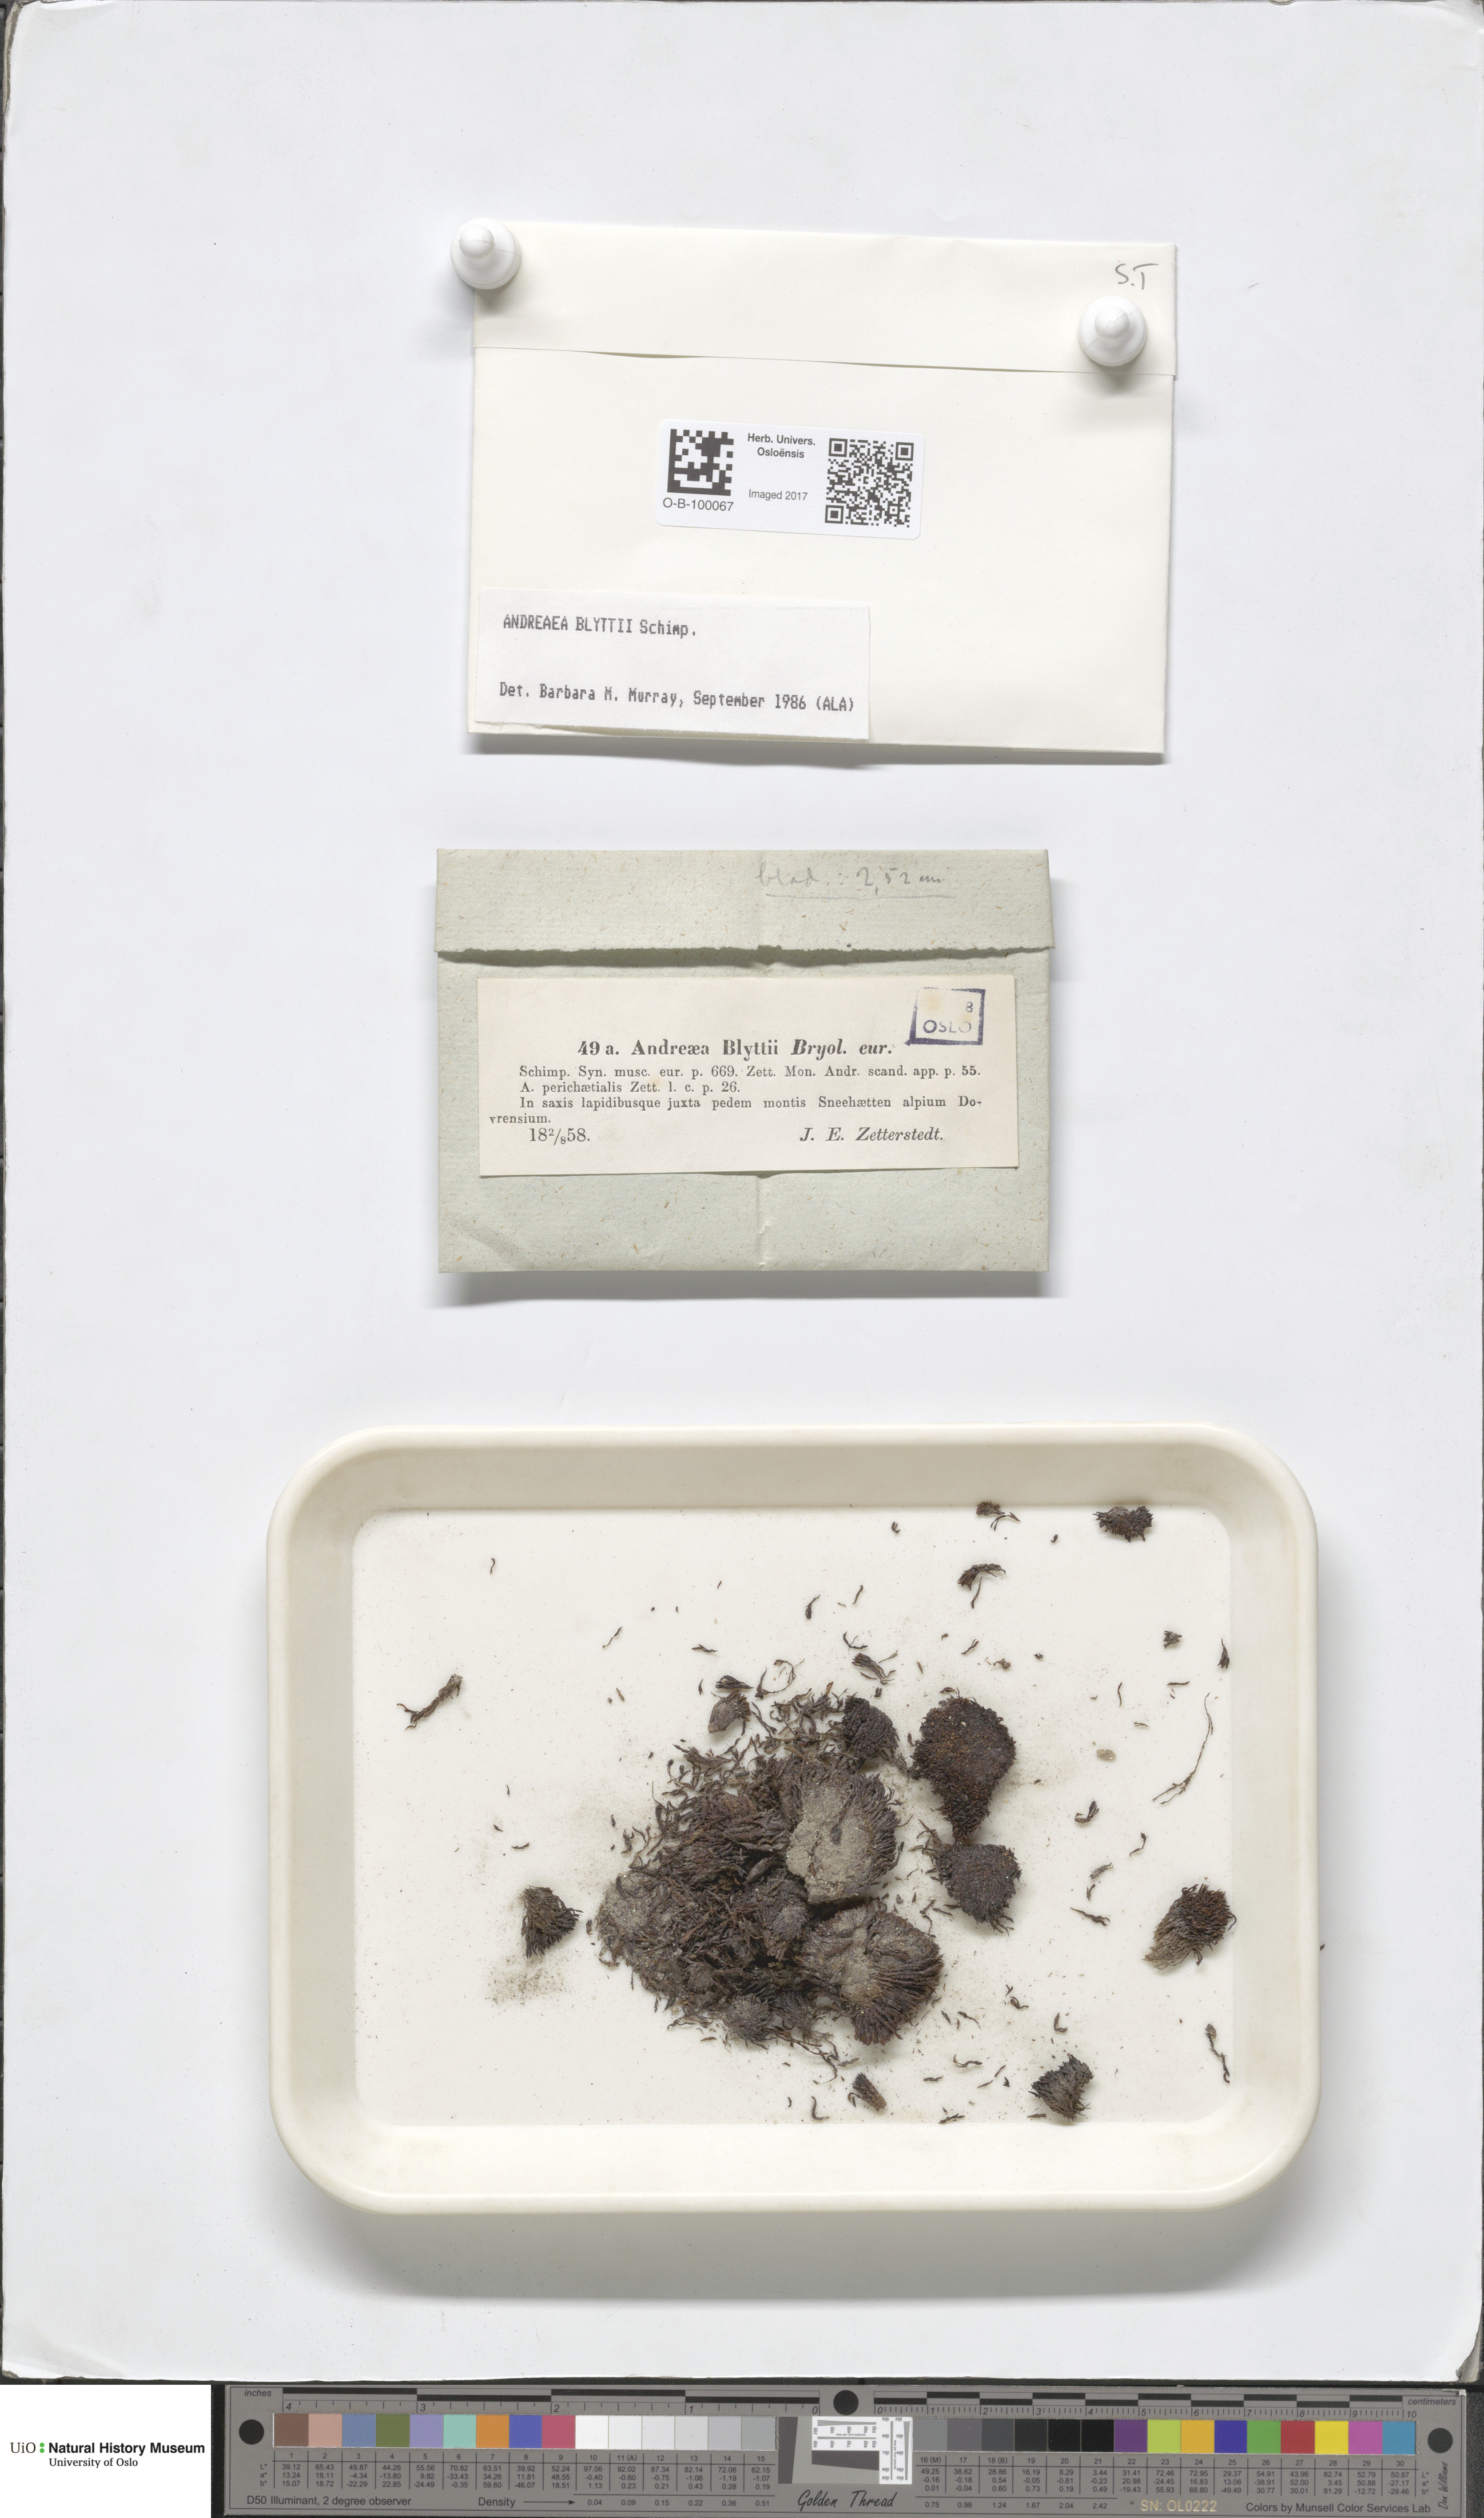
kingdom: Plantae
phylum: Bryophyta
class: Andreaeopsida
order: Andreaeales
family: Andreaeaceae
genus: Andreaea
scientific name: Andreaea blyttii
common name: Blytt's rock moss
